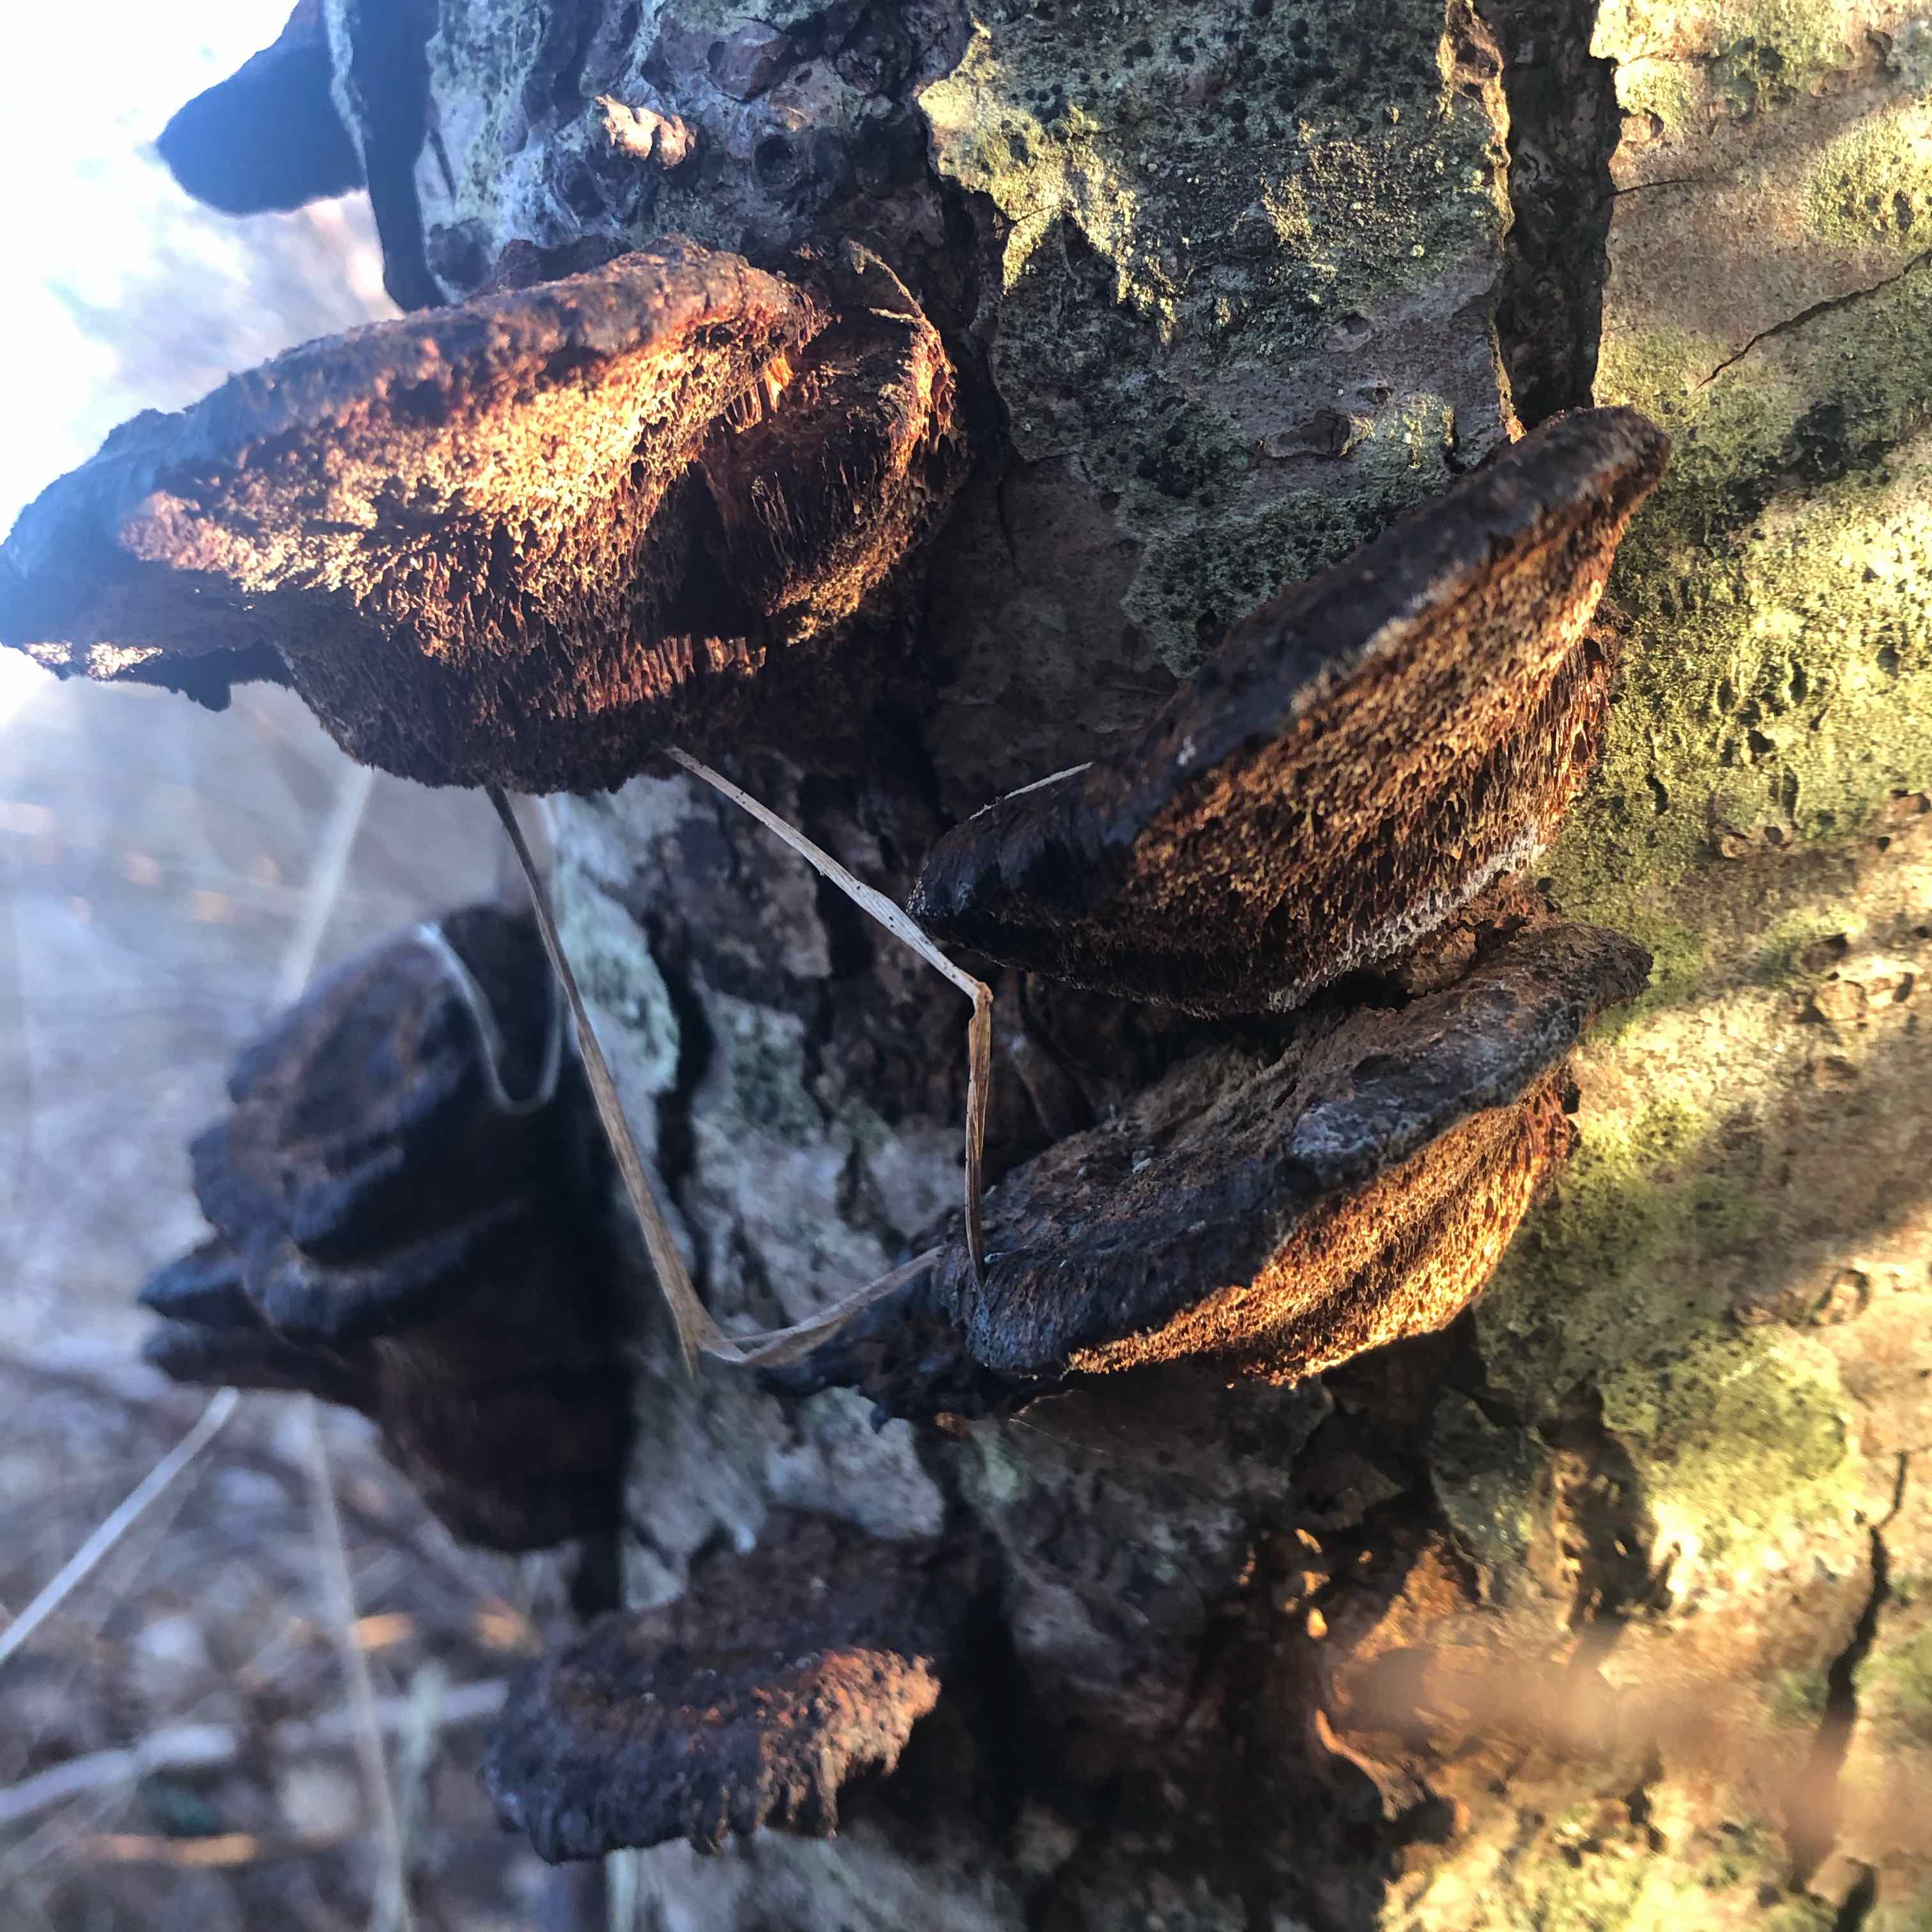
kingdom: Fungi
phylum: Basidiomycota
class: Agaricomycetes
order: Hymenochaetales
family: Hymenochaetaceae
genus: Xanthoporia
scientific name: Xanthoporia radiata
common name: elle-spejlporesvamp
